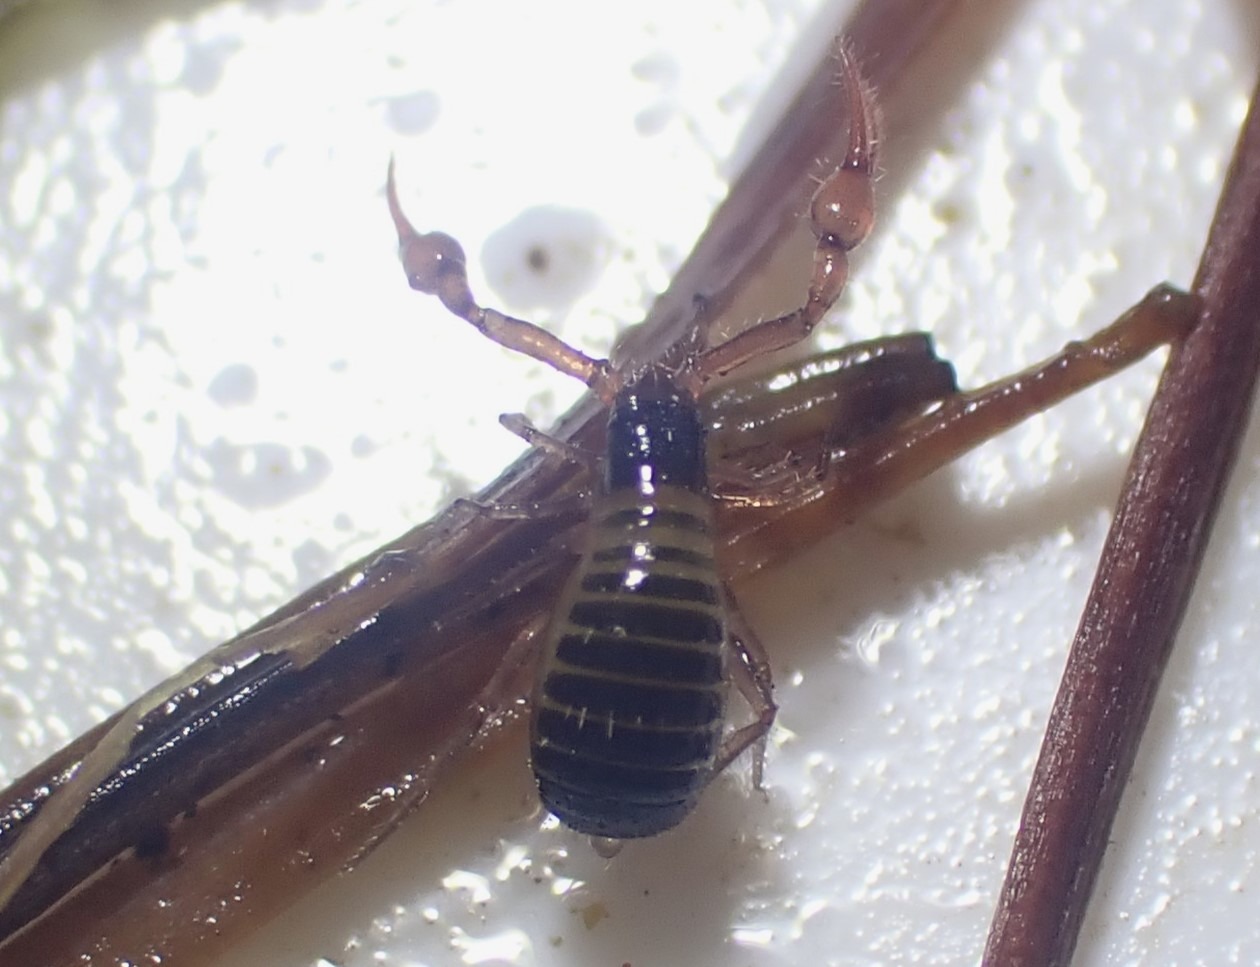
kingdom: Animalia
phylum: Arthropoda
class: Arachnida
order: Pseudoscorpiones
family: Neobisiidae
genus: Neobisium
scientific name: Neobisium carcinoides
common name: Almindelig mosskorpion
